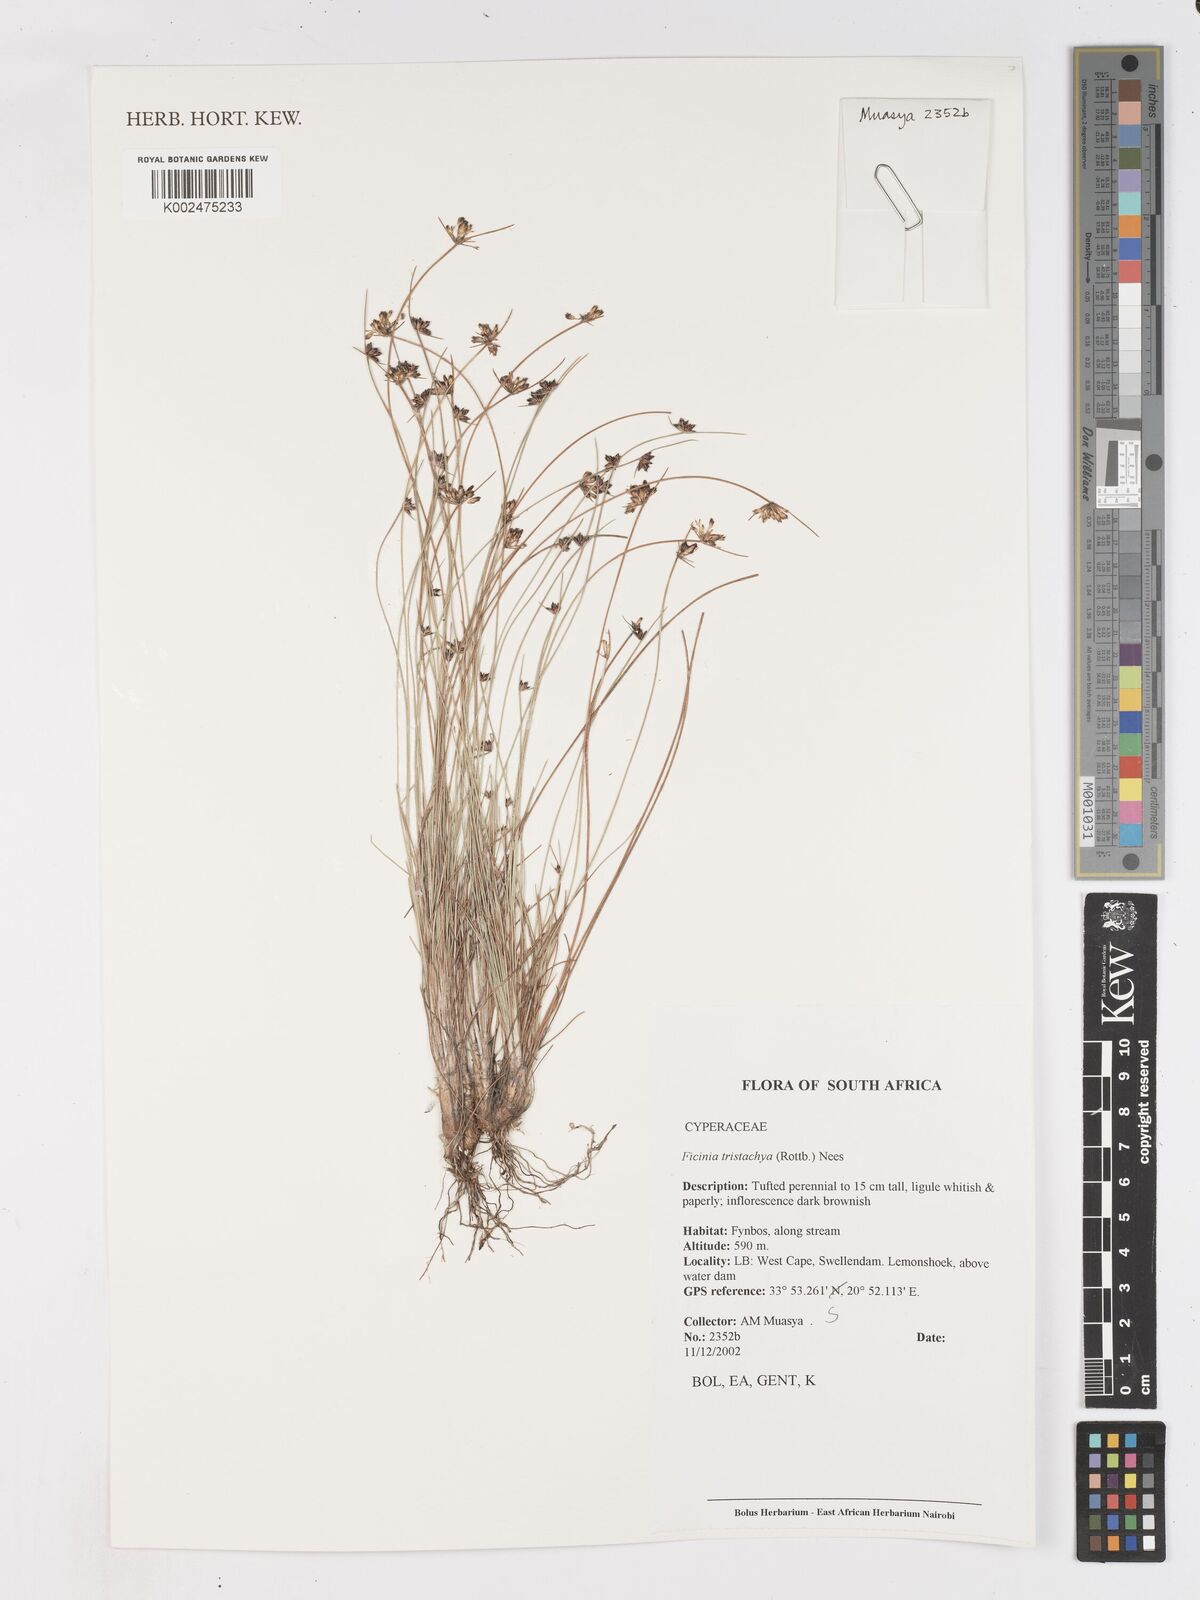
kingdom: Plantae
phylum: Tracheophyta
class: Liliopsida
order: Poales
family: Cyperaceae
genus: Ficinia
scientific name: Ficinia tristachya
